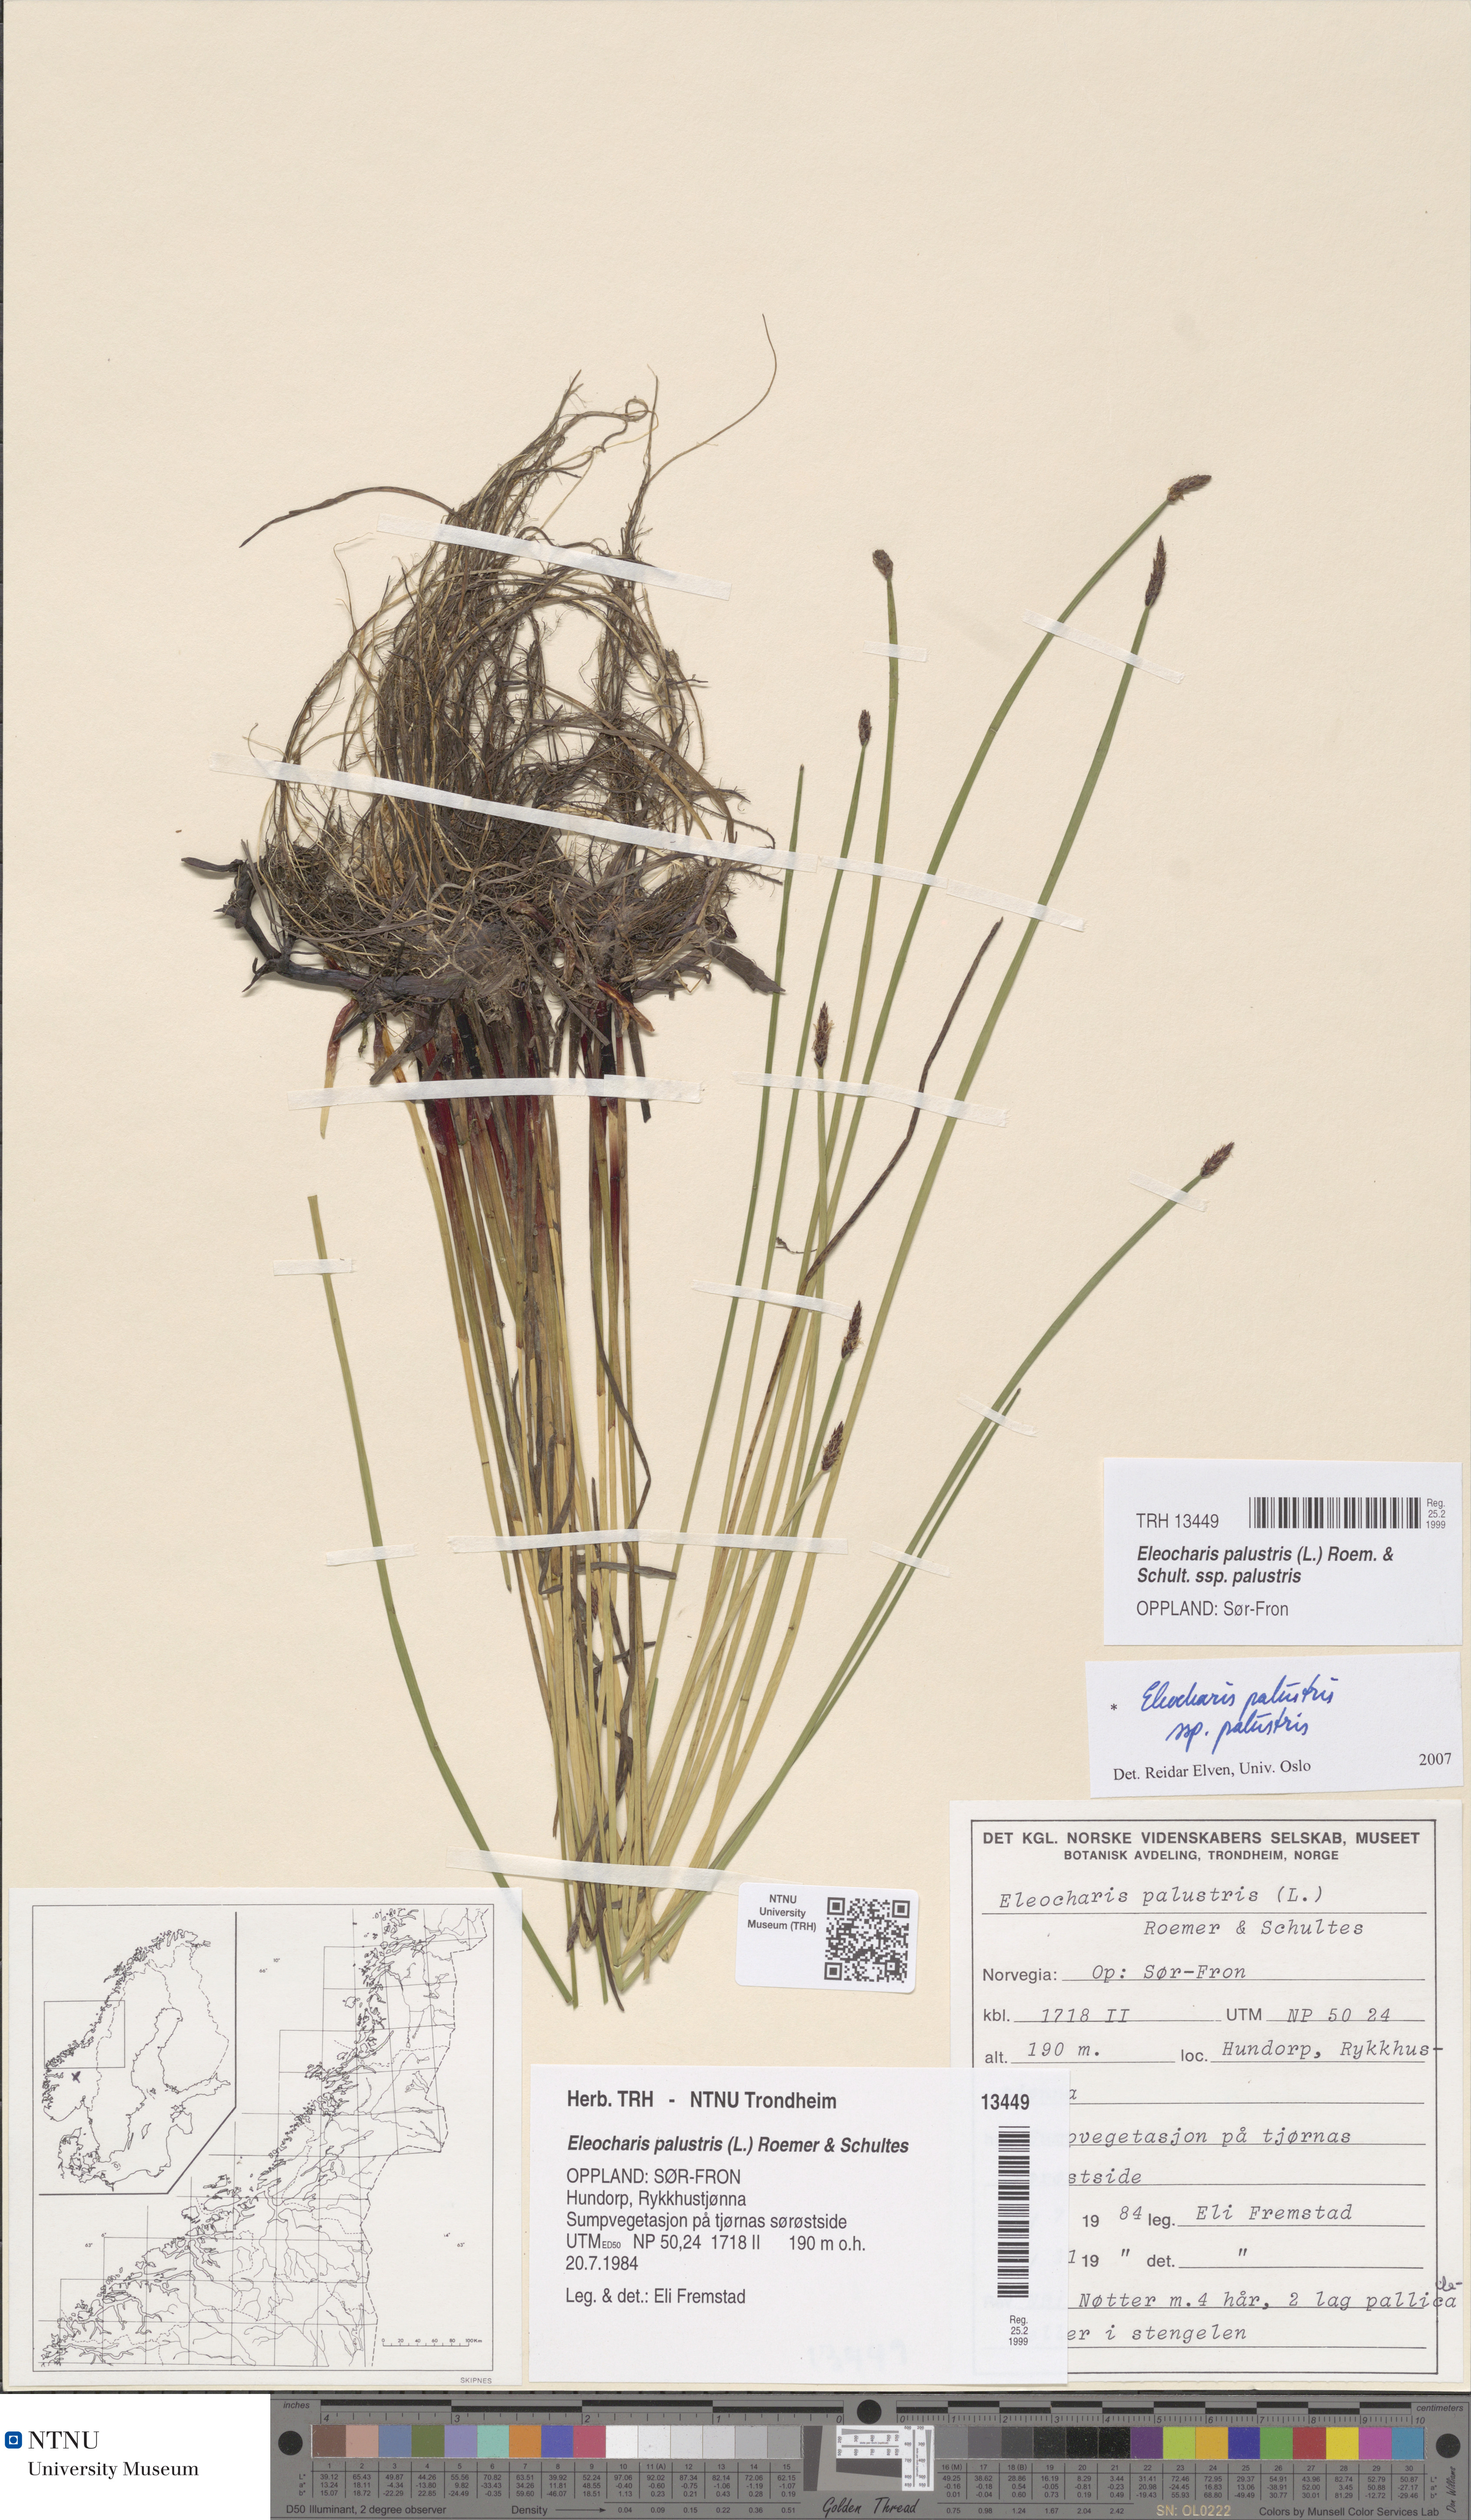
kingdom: Plantae
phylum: Tracheophyta
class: Liliopsida
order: Poales
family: Cyperaceae
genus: Eleocharis
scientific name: Eleocharis palustris
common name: Common spike-rush
